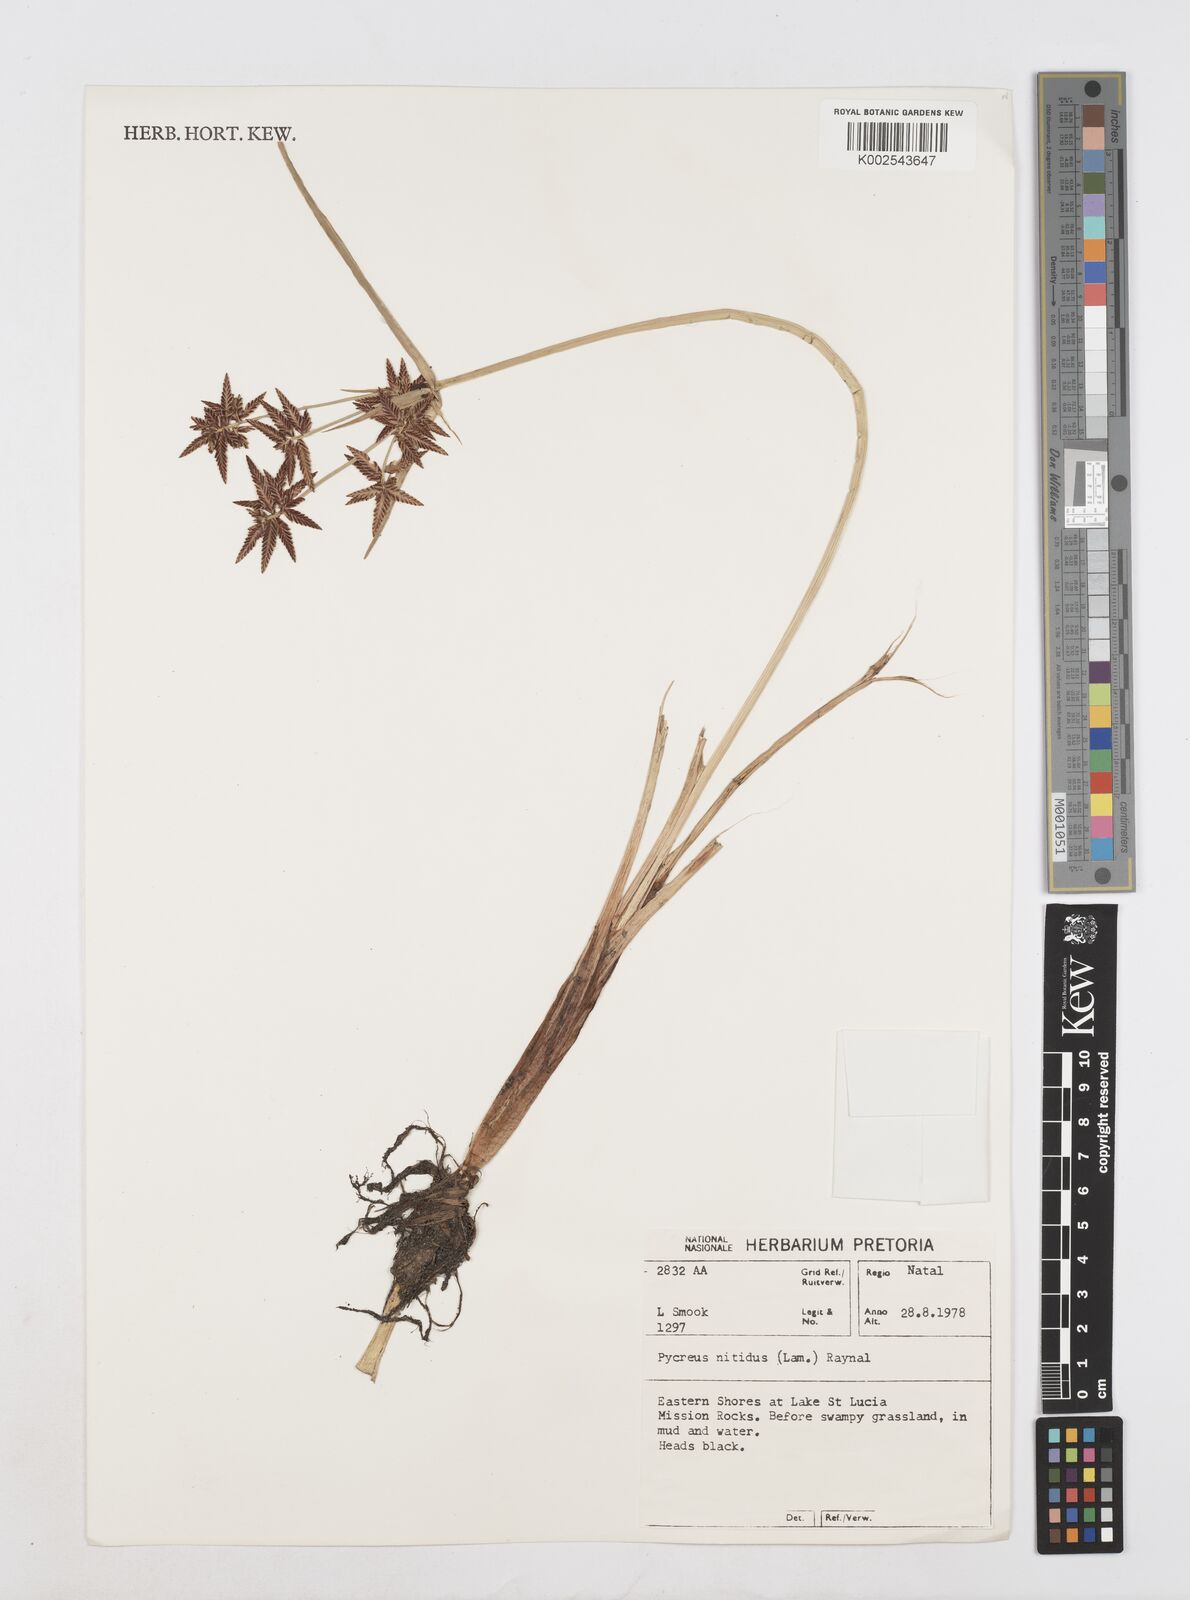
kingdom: Plantae
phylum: Tracheophyta
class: Liliopsida
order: Poales
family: Cyperaceae
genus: Cyperus
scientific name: Cyperus nitidus
